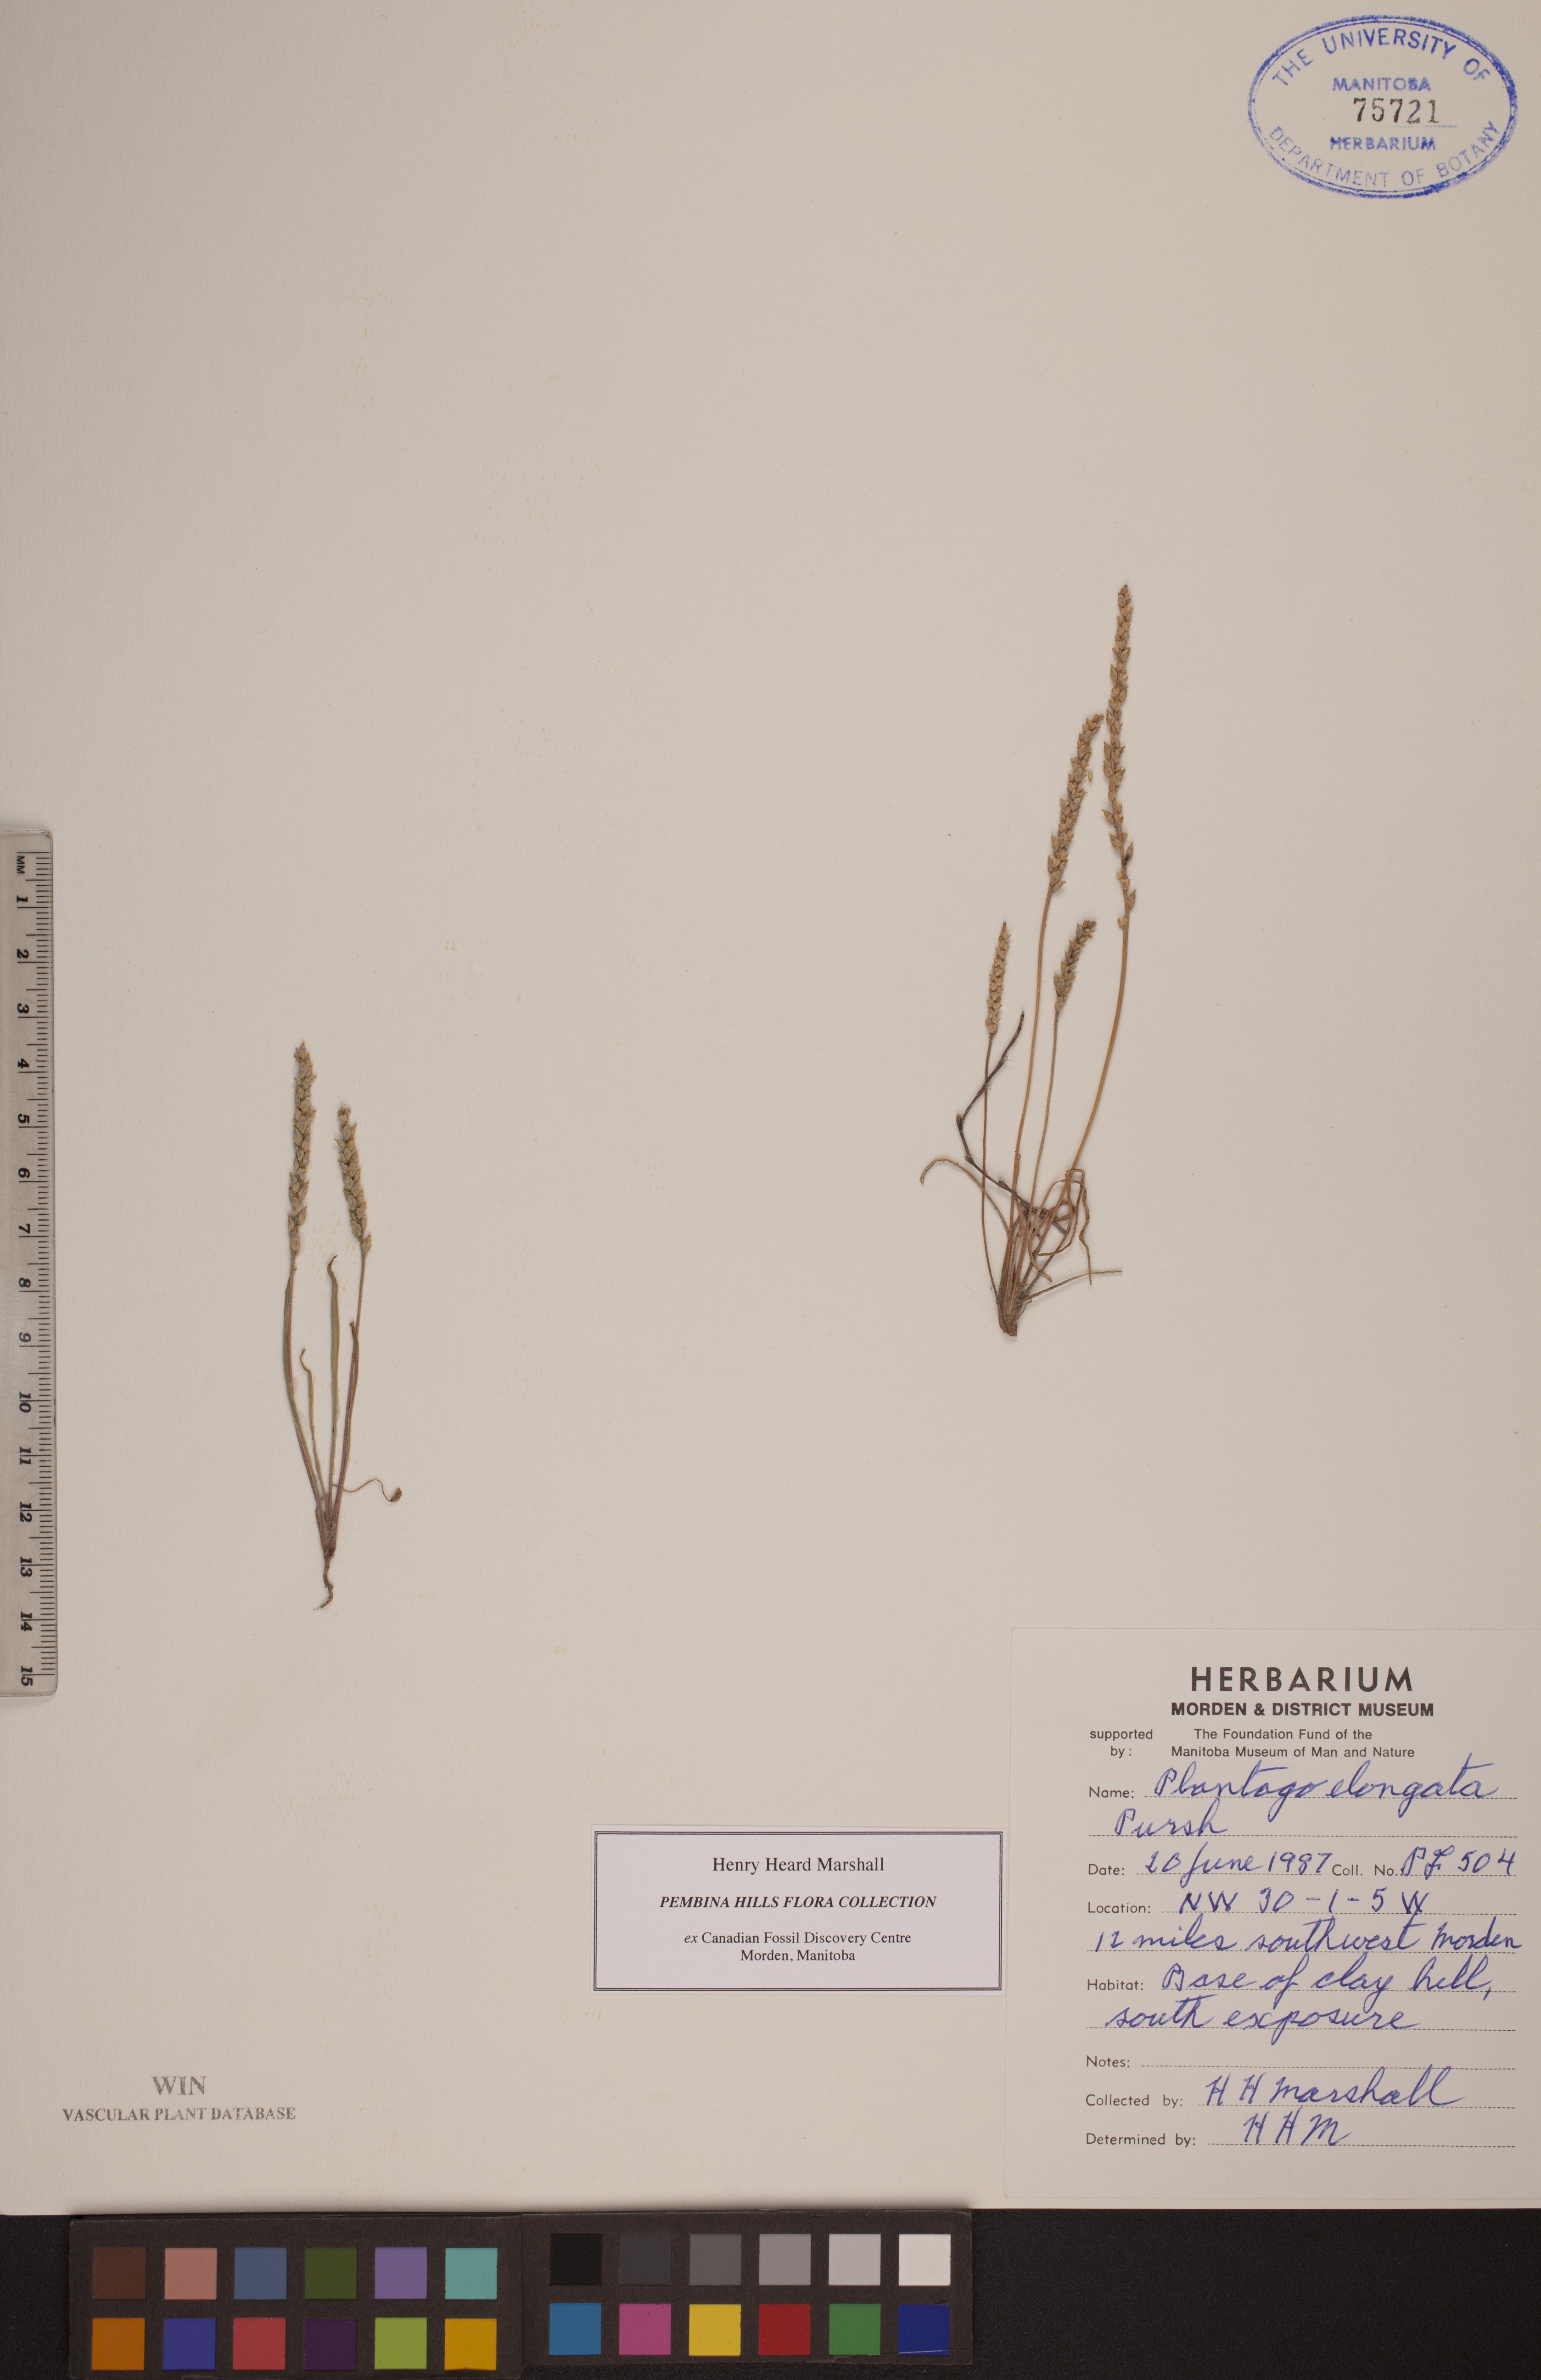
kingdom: Plantae
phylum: Tracheophyta
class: Magnoliopsida
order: Lamiales
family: Plantaginaceae
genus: Plantago
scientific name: Plantago elongata
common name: Linear-leaved plantain
